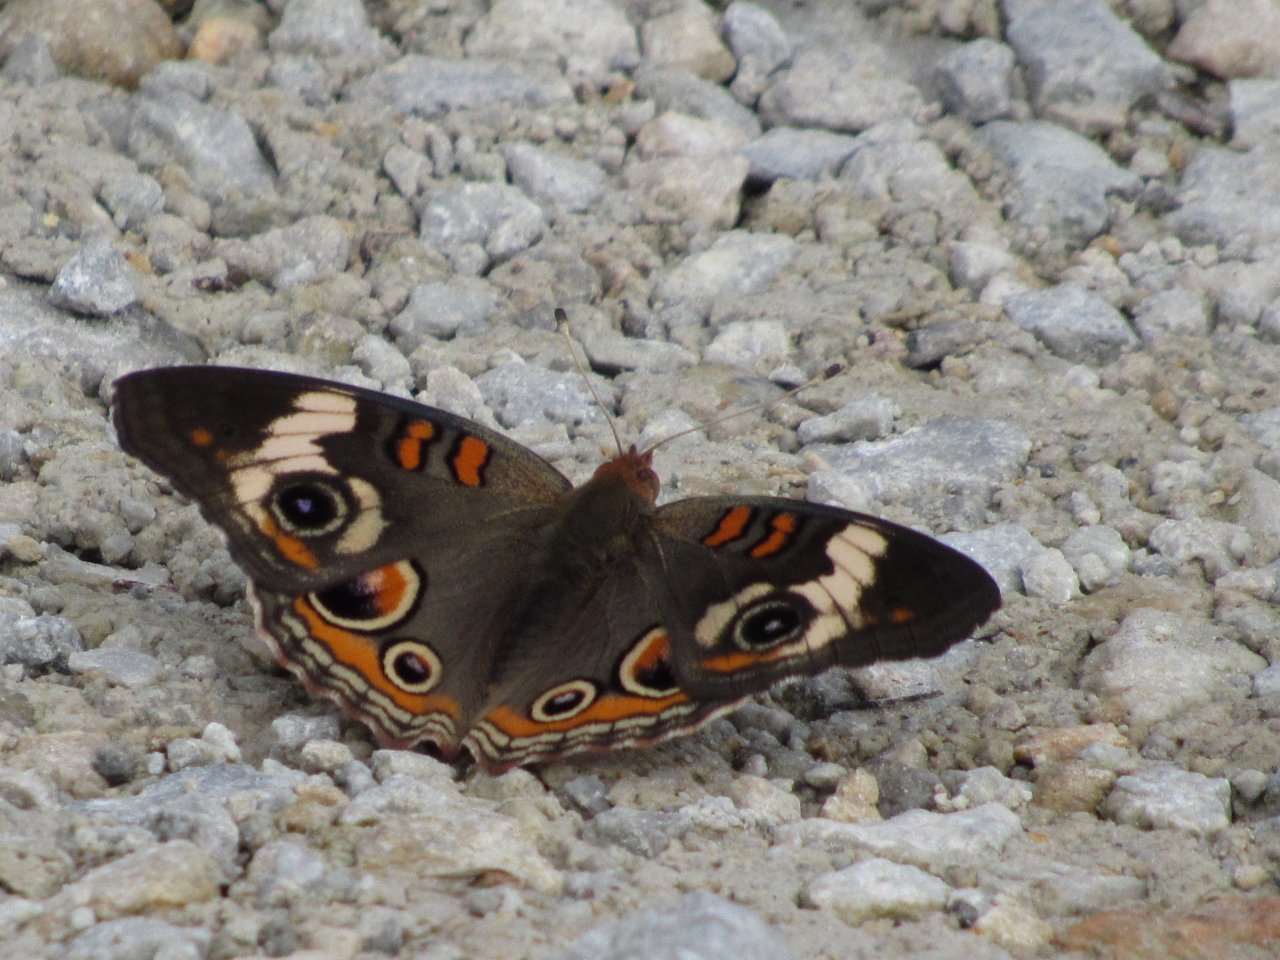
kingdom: Animalia
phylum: Arthropoda
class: Insecta
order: Lepidoptera
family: Nymphalidae
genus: Junonia
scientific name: Junonia coenia
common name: Common Buckeye
